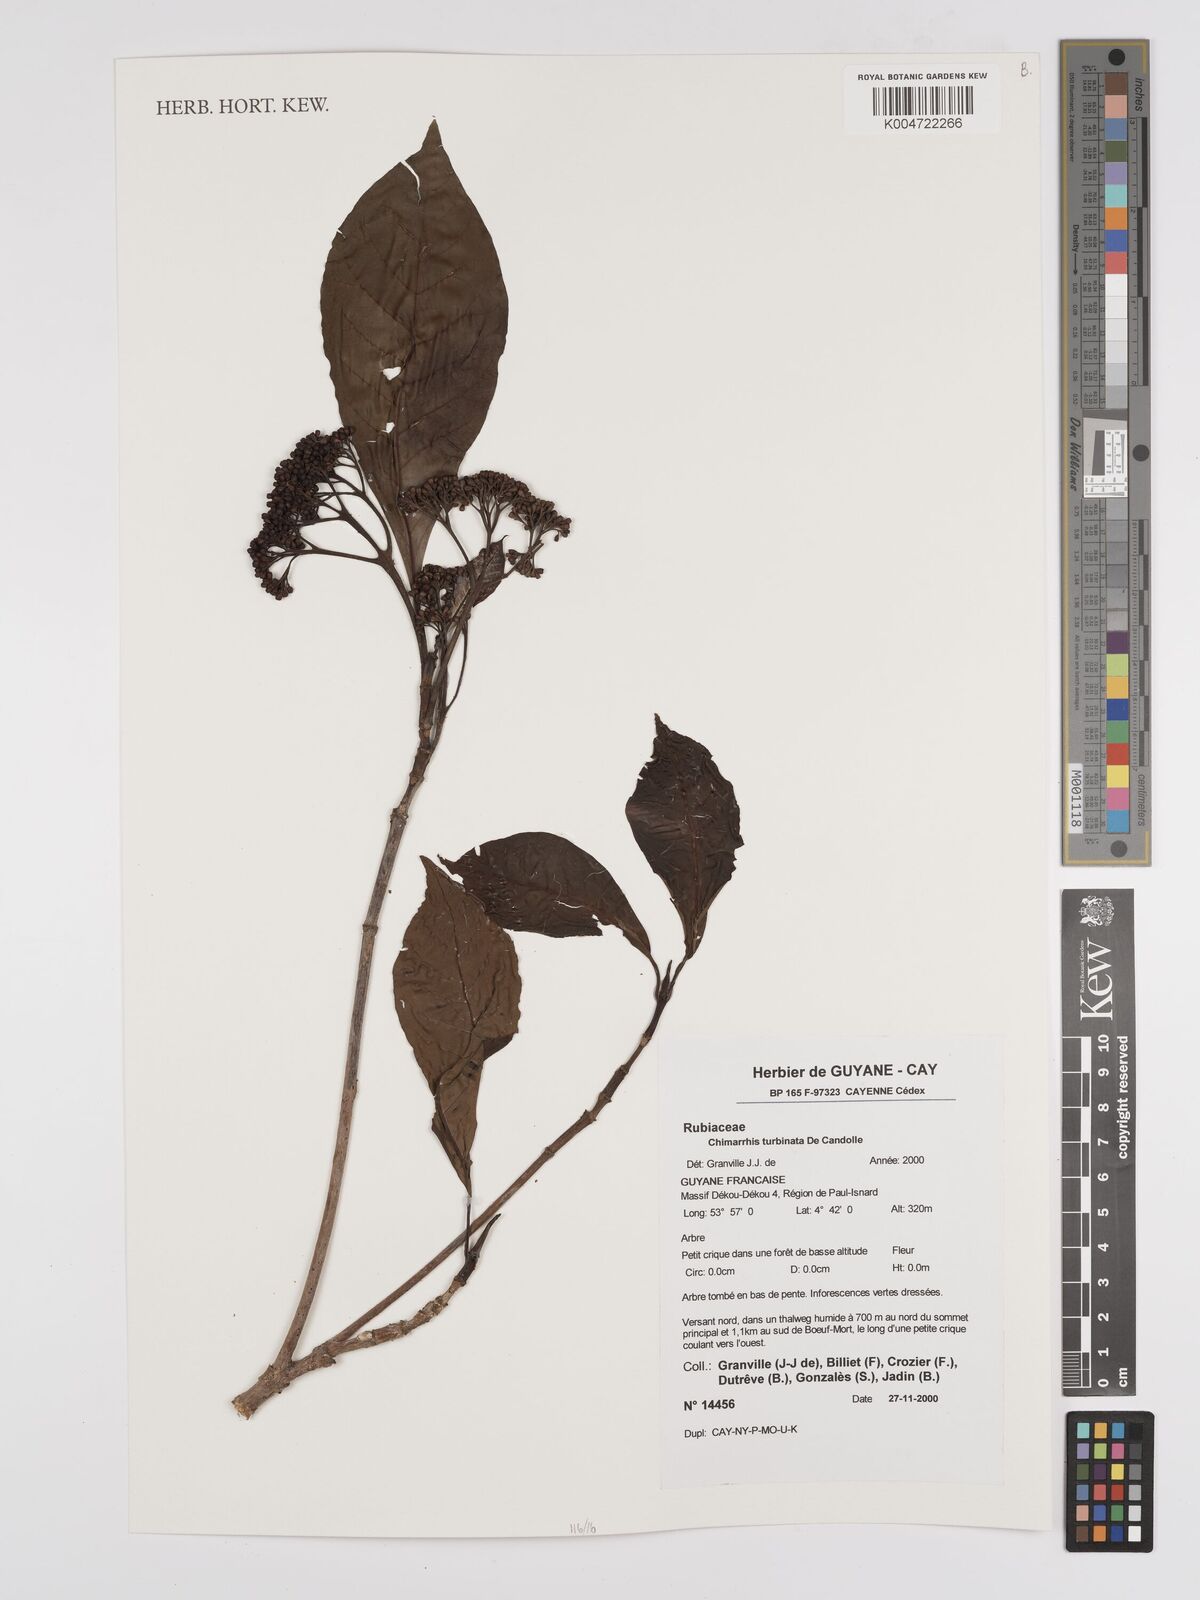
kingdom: Plantae
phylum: Tracheophyta
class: Magnoliopsida
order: Gentianales
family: Rubiaceae
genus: Chimarrhis
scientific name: Chimarrhis turbinata
